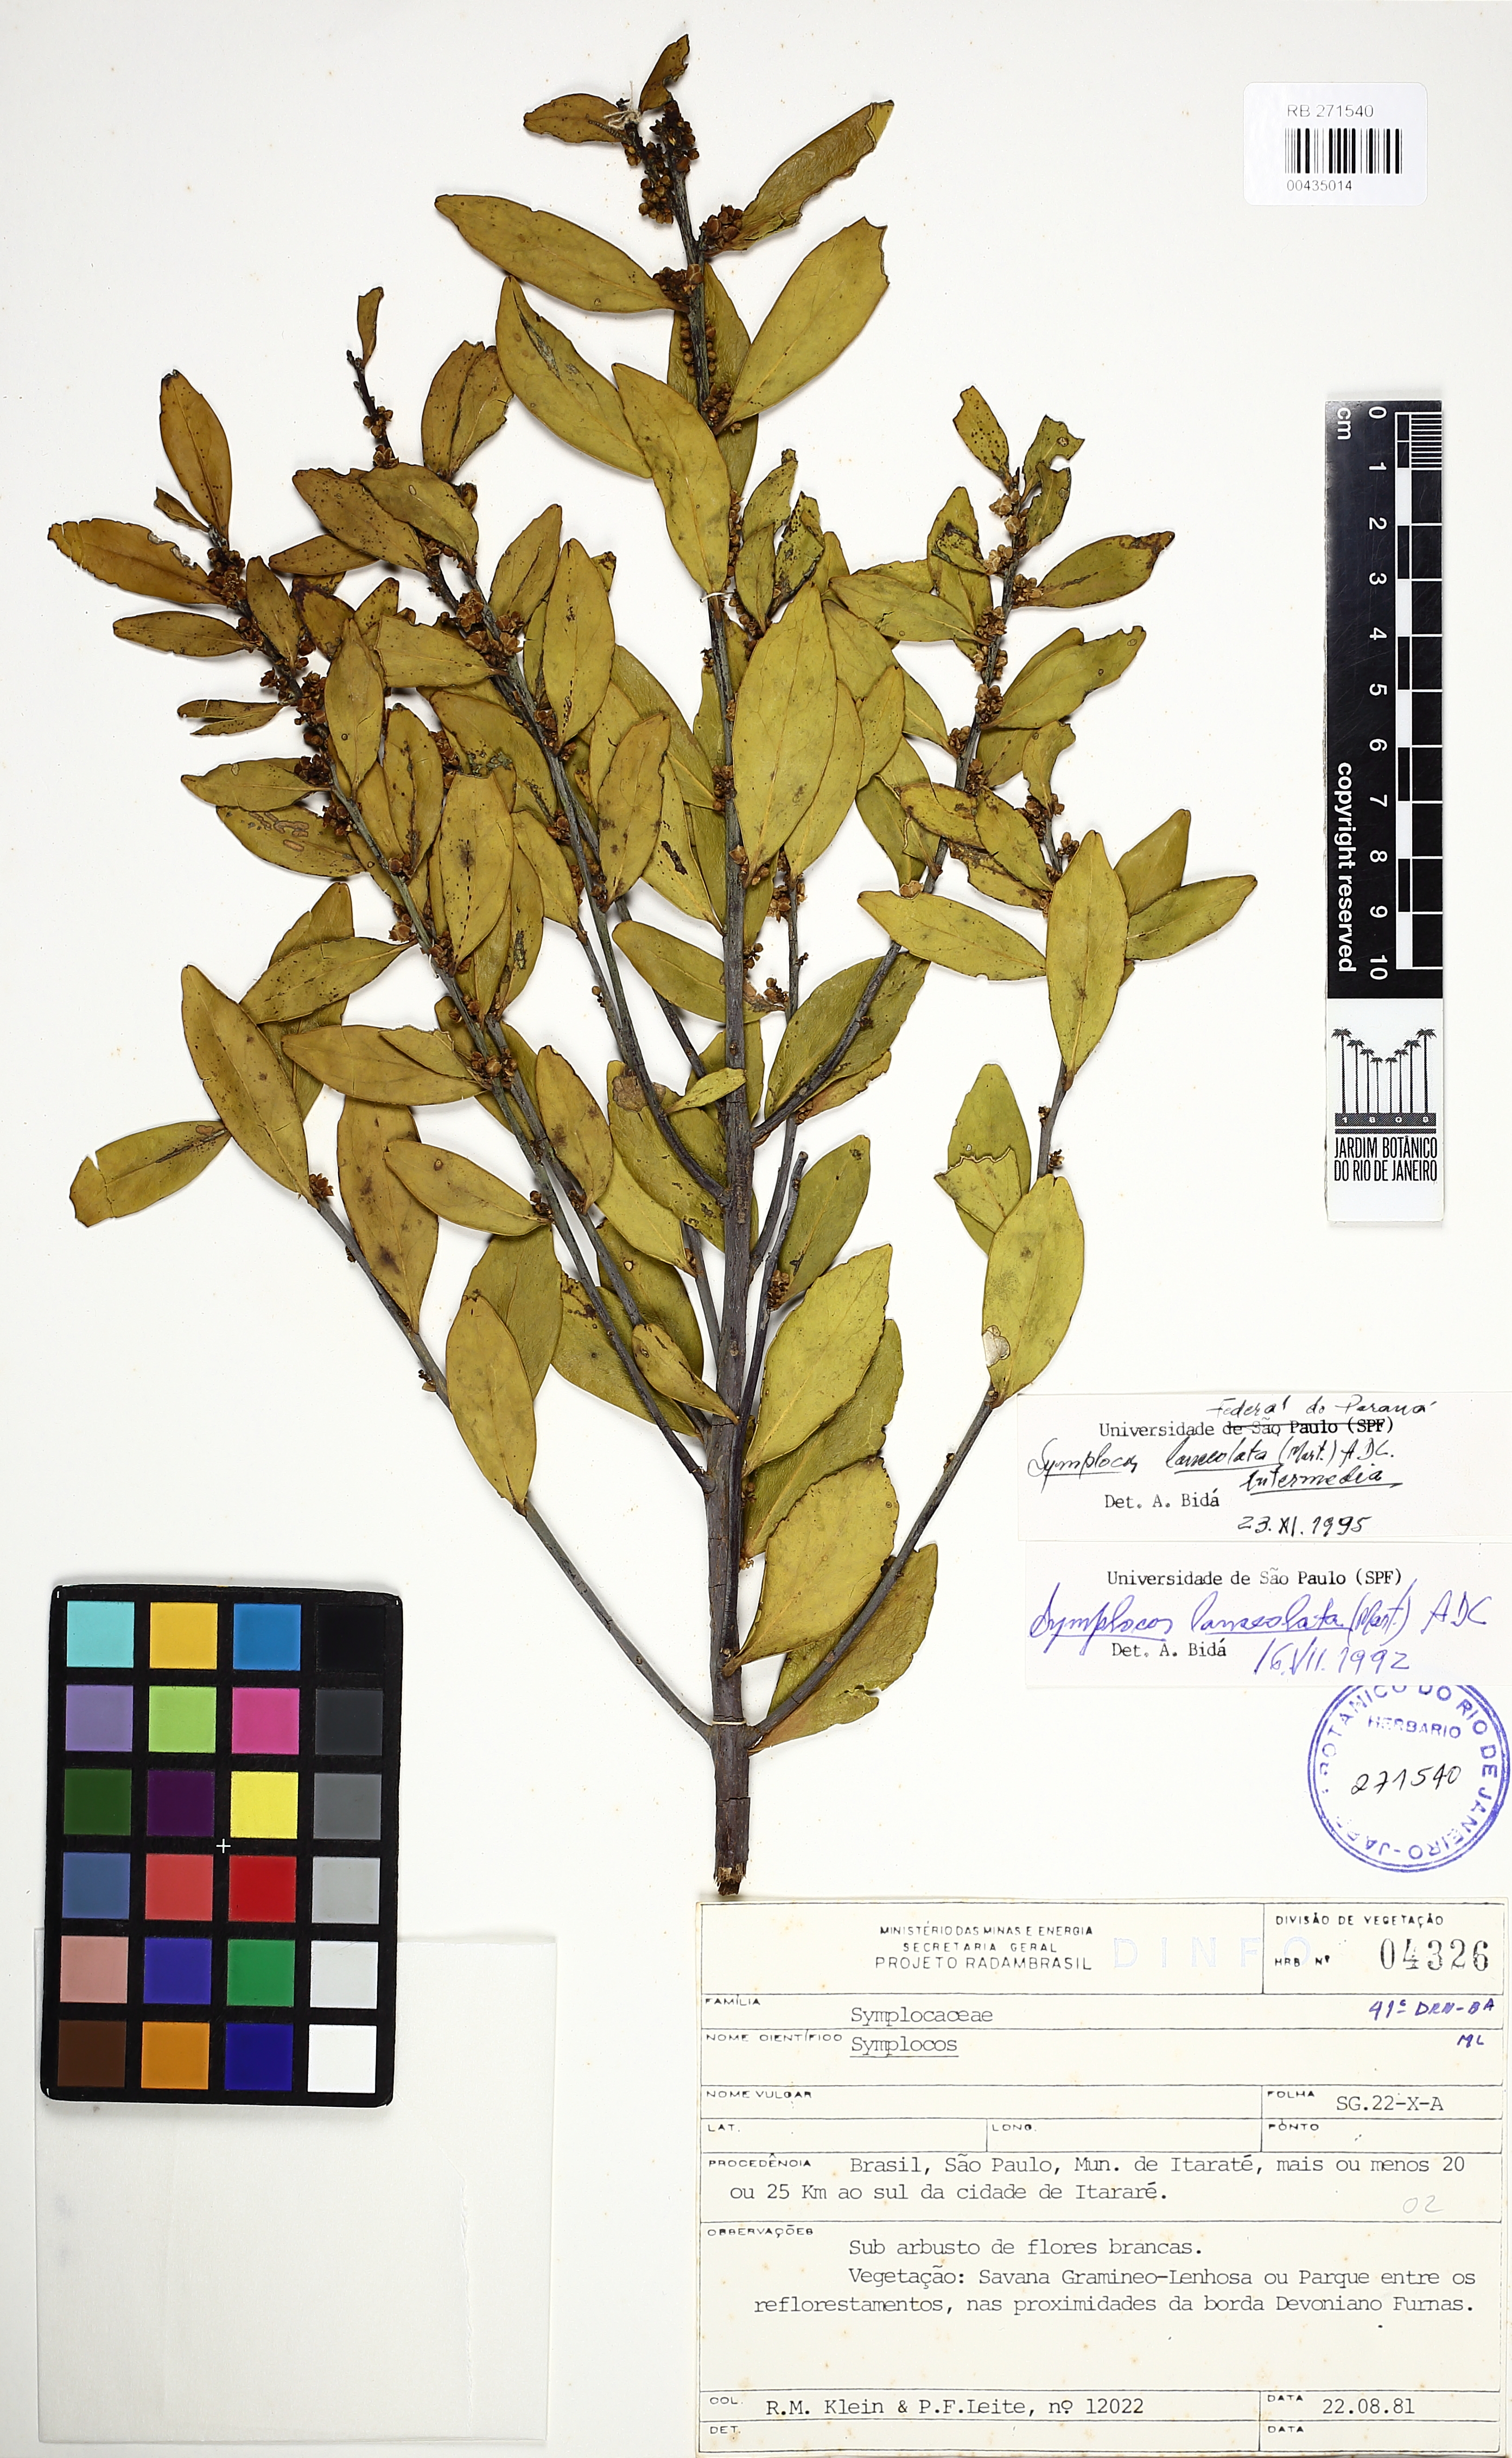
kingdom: Plantae
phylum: Tracheophyta
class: Magnoliopsida
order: Ericales
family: Symplocaceae
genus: Symplocos
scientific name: Symplocos oblongifolia
